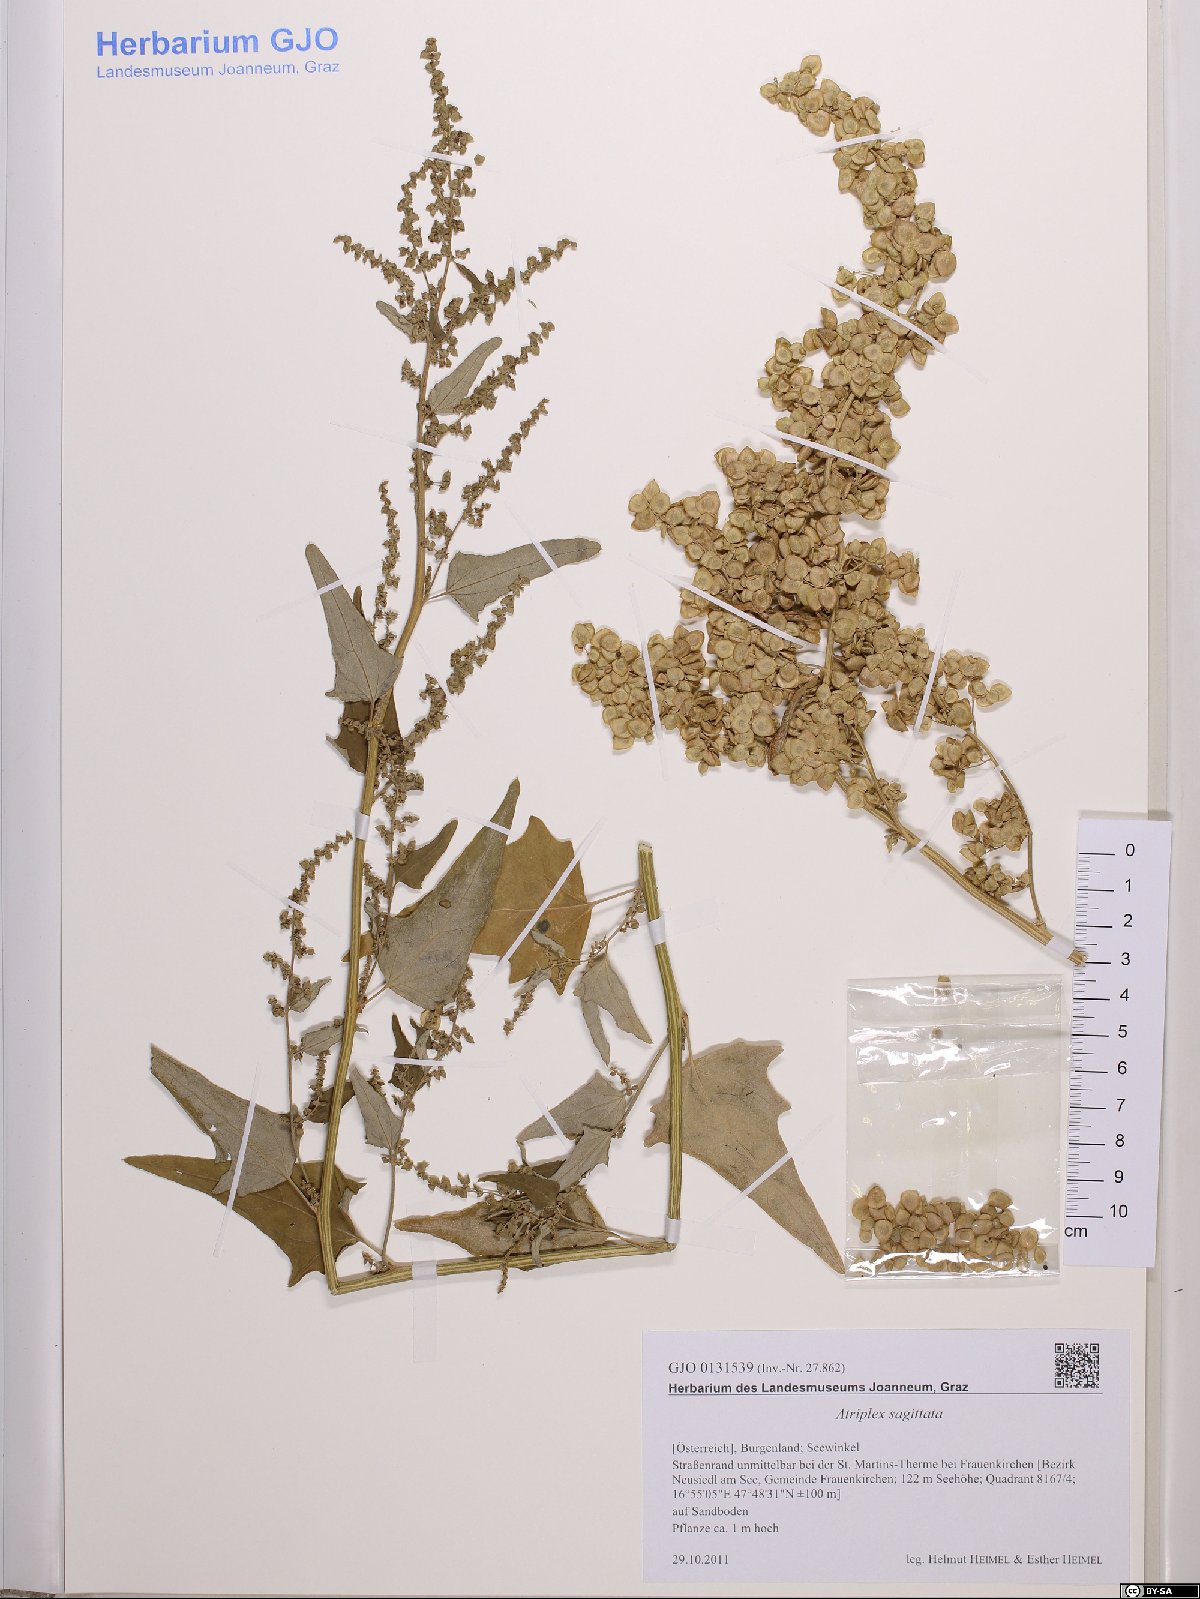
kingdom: Plantae
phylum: Tracheophyta
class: Magnoliopsida
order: Caryophyllales
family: Amaranthaceae
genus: Atriplex
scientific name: Atriplex sagittata
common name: Purple orache
